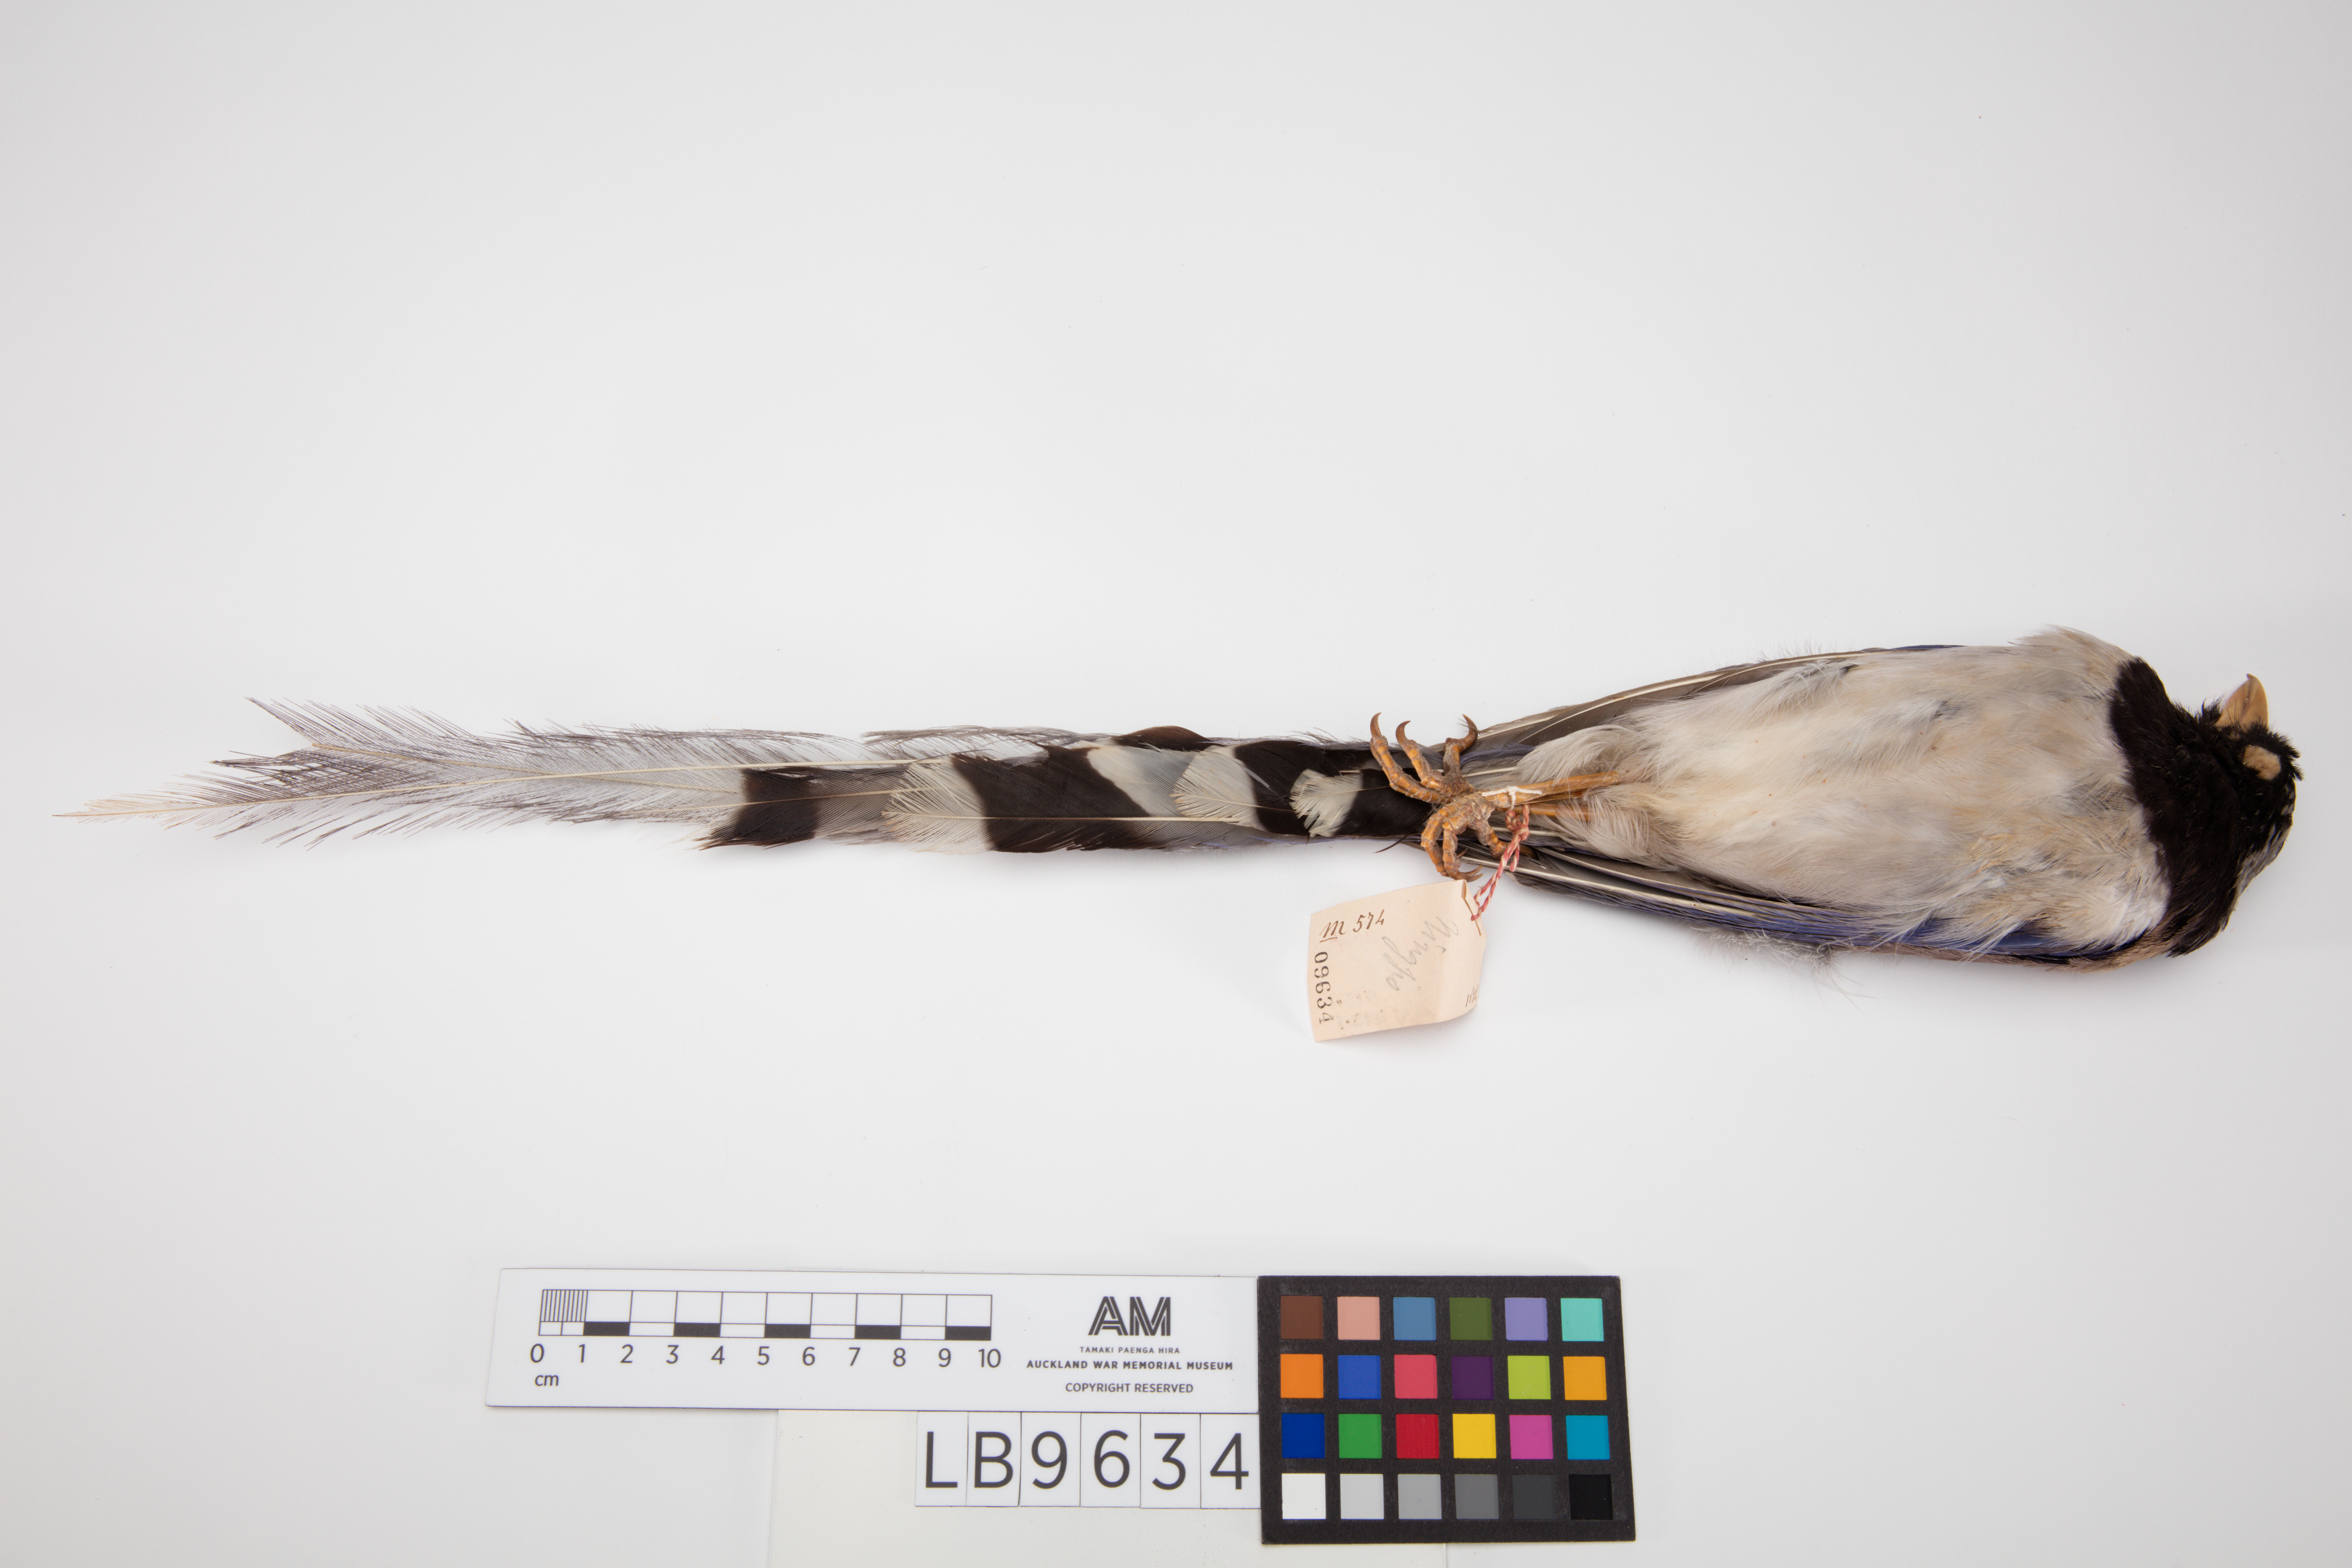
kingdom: Animalia
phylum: Chordata
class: Aves
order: Passeriformes
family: Corvidae
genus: Urocissa
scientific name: Urocissa erythroryncha
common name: Red-billed blue magpie
